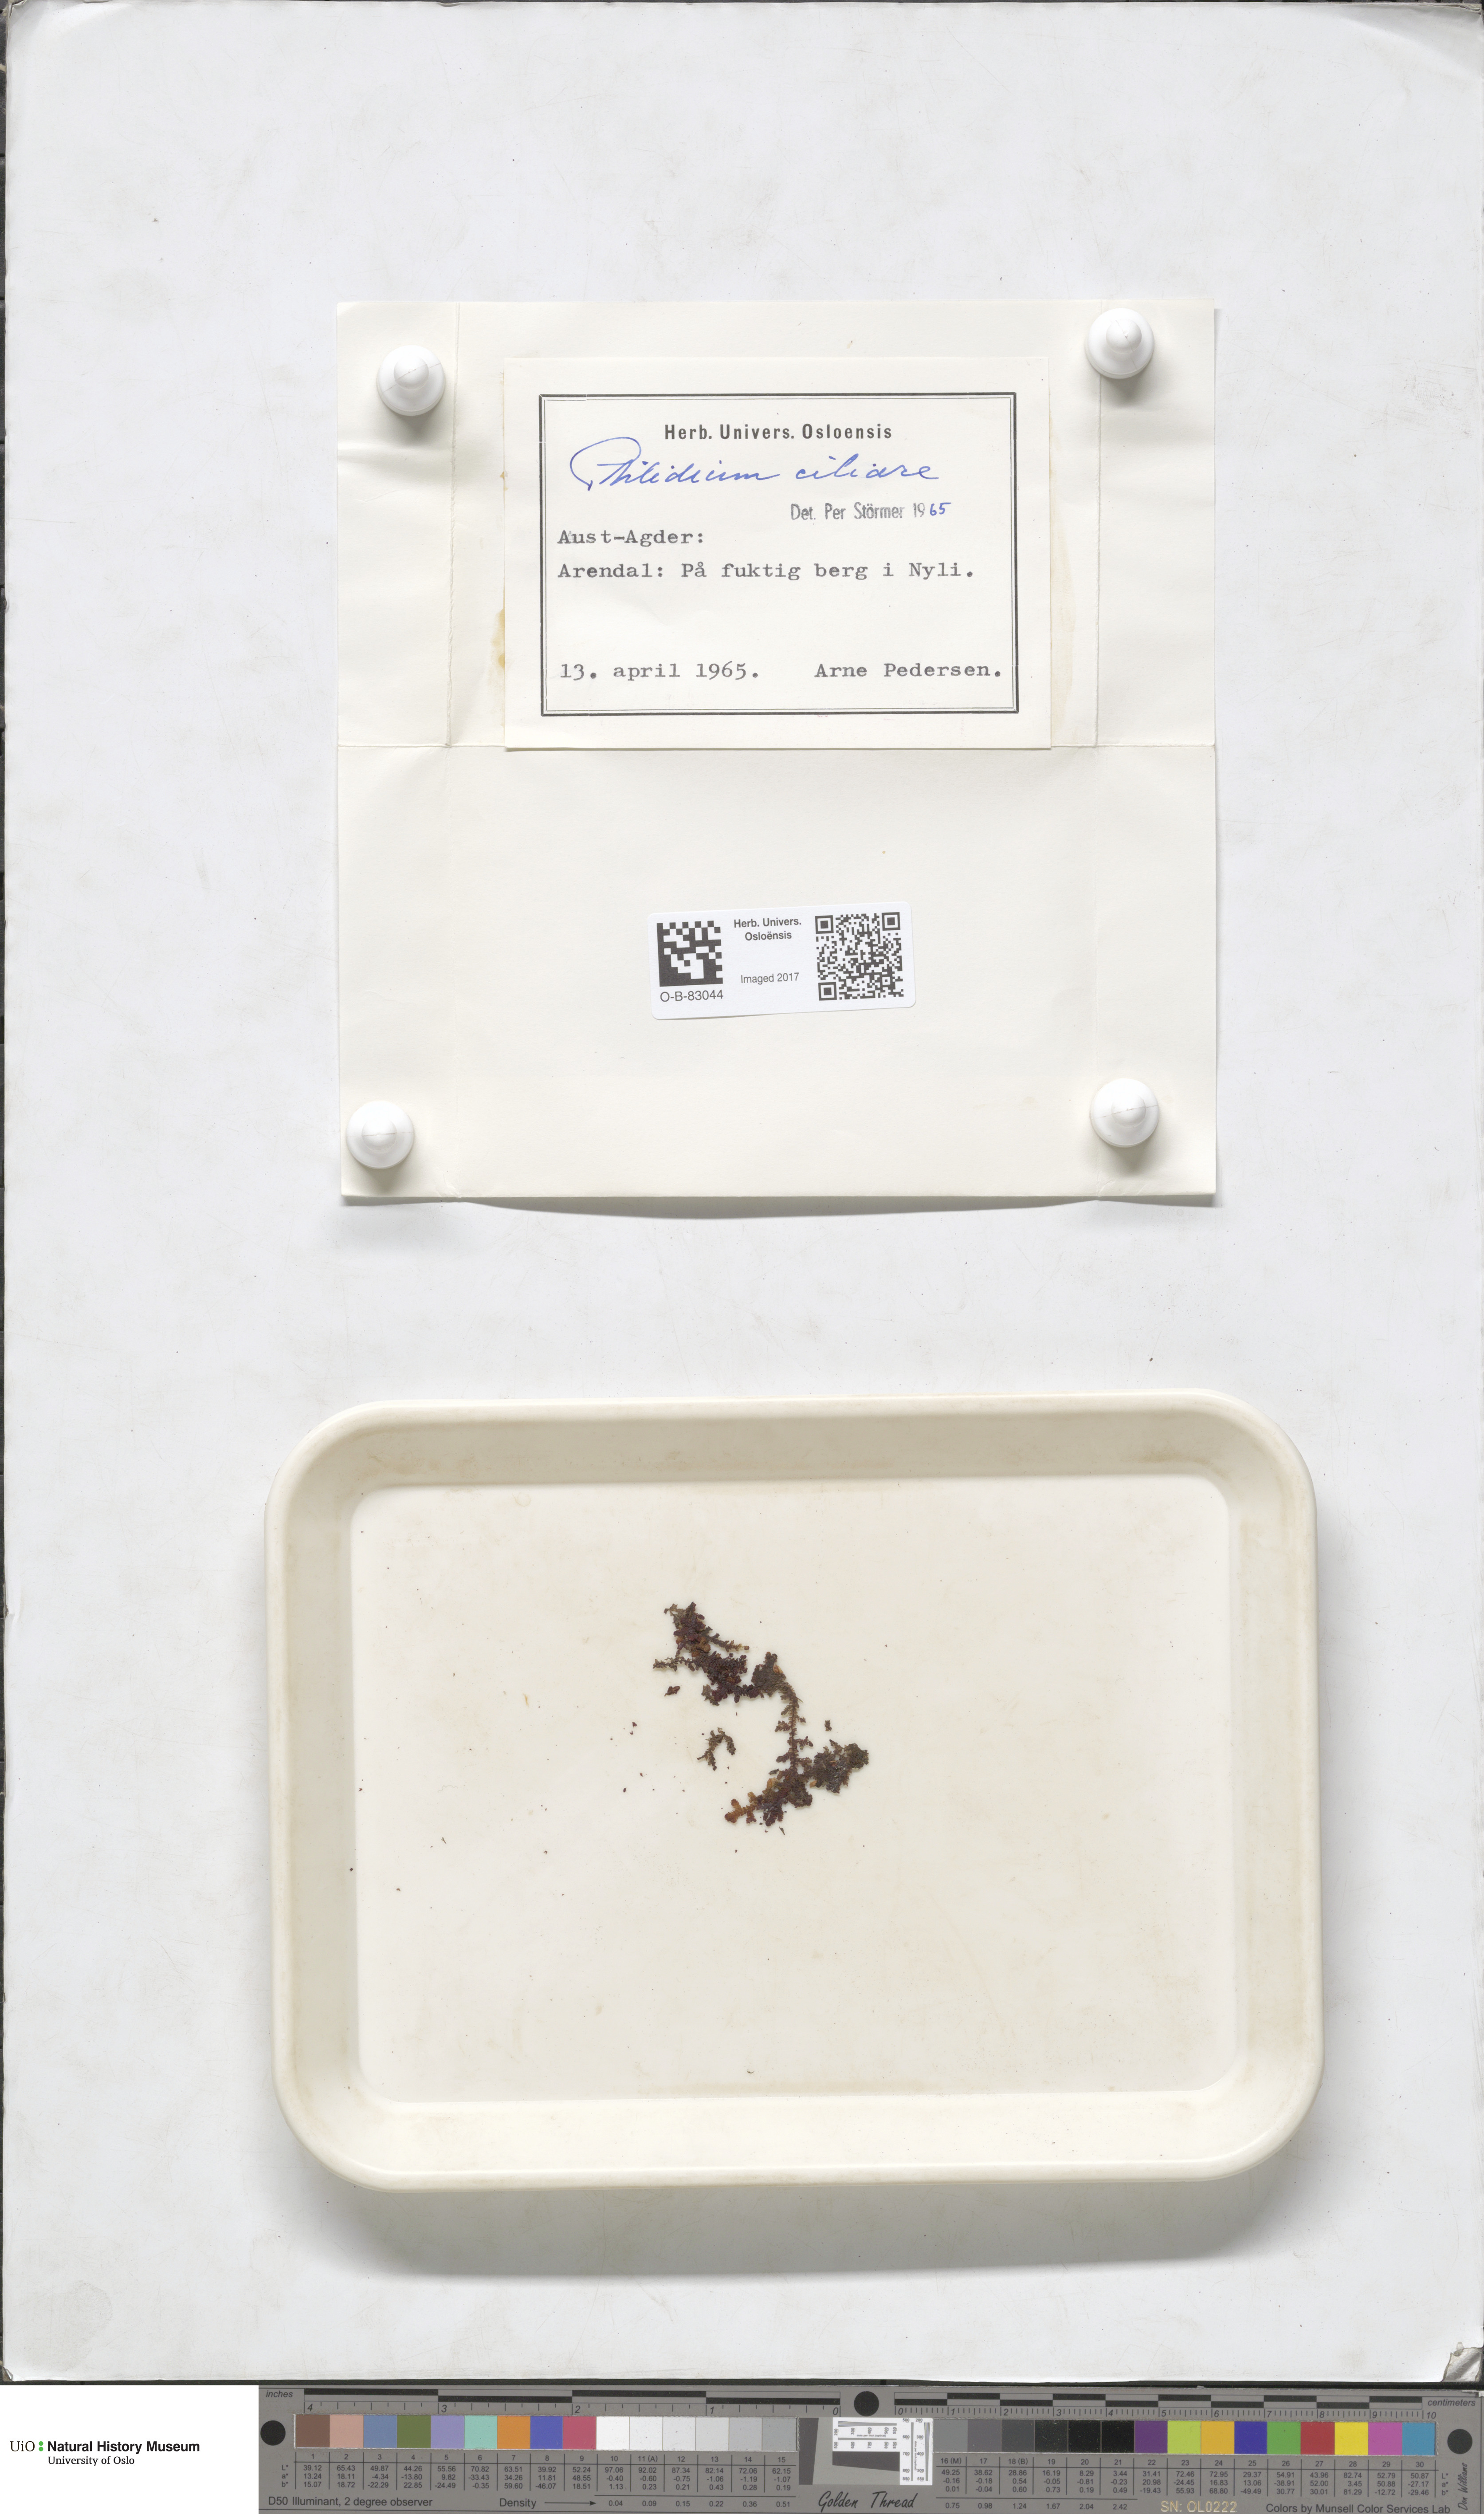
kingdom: Plantae
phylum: Marchantiophyta
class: Jungermanniopsida
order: Ptilidiales
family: Ptilidiaceae
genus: Ptilidium
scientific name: Ptilidium ciliare
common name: Ciliate fringewort
